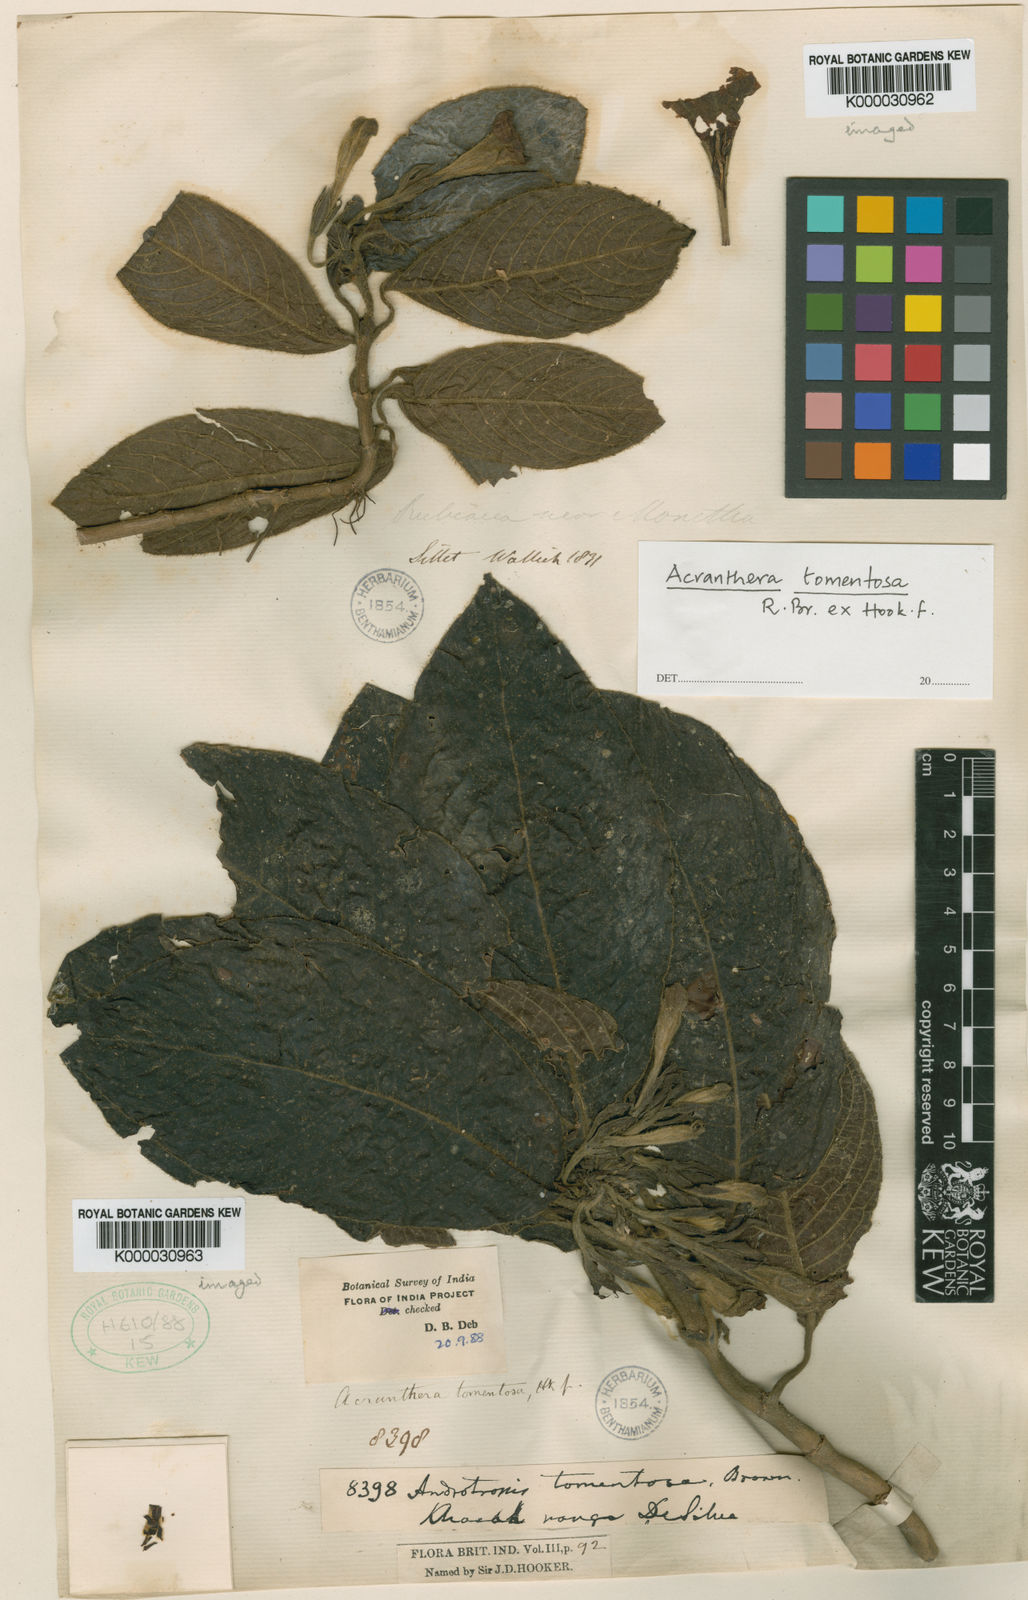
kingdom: Plantae
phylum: Tracheophyta
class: Magnoliopsida
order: Gentianales
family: Rubiaceae
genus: Acranthera
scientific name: Acranthera tomentosa
